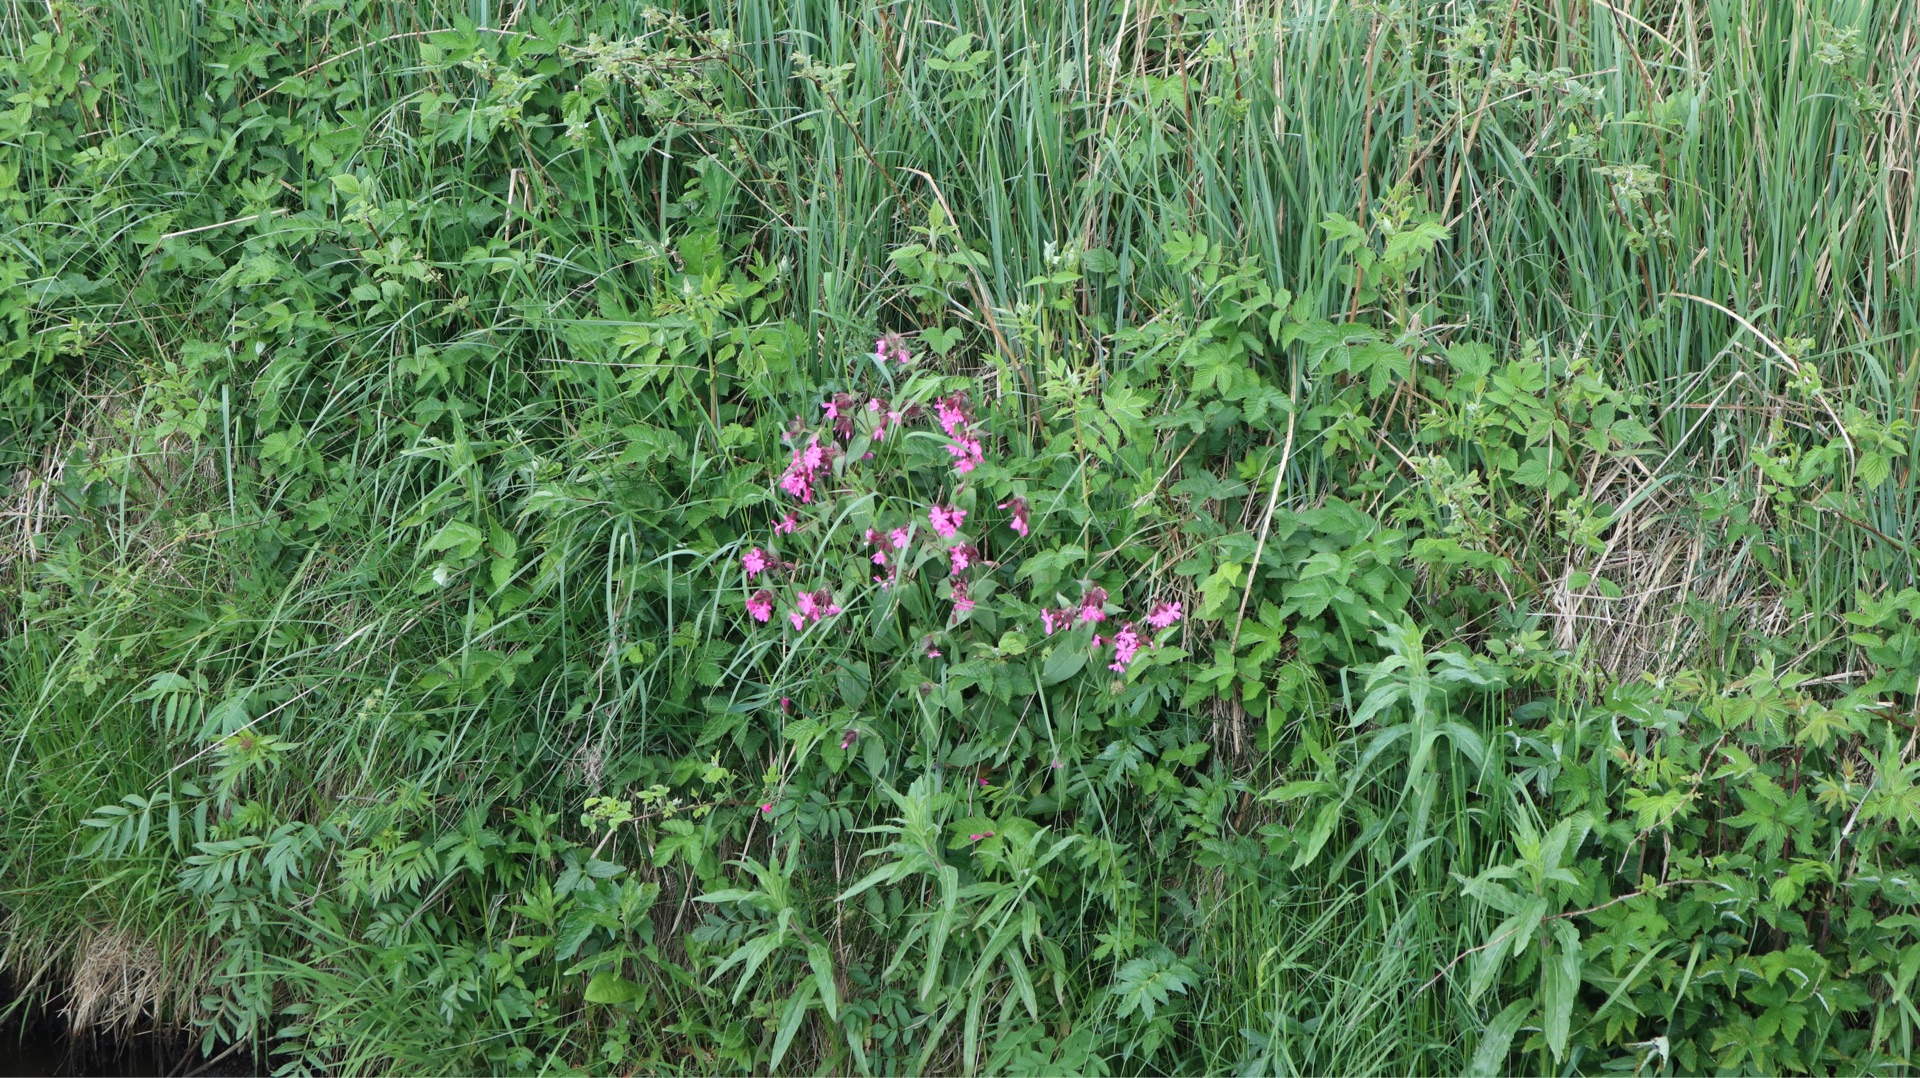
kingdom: Plantae
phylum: Tracheophyta
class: Magnoliopsida
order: Caryophyllales
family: Caryophyllaceae
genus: Silene
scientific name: Silene dioica
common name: Dagpragtstjerne
